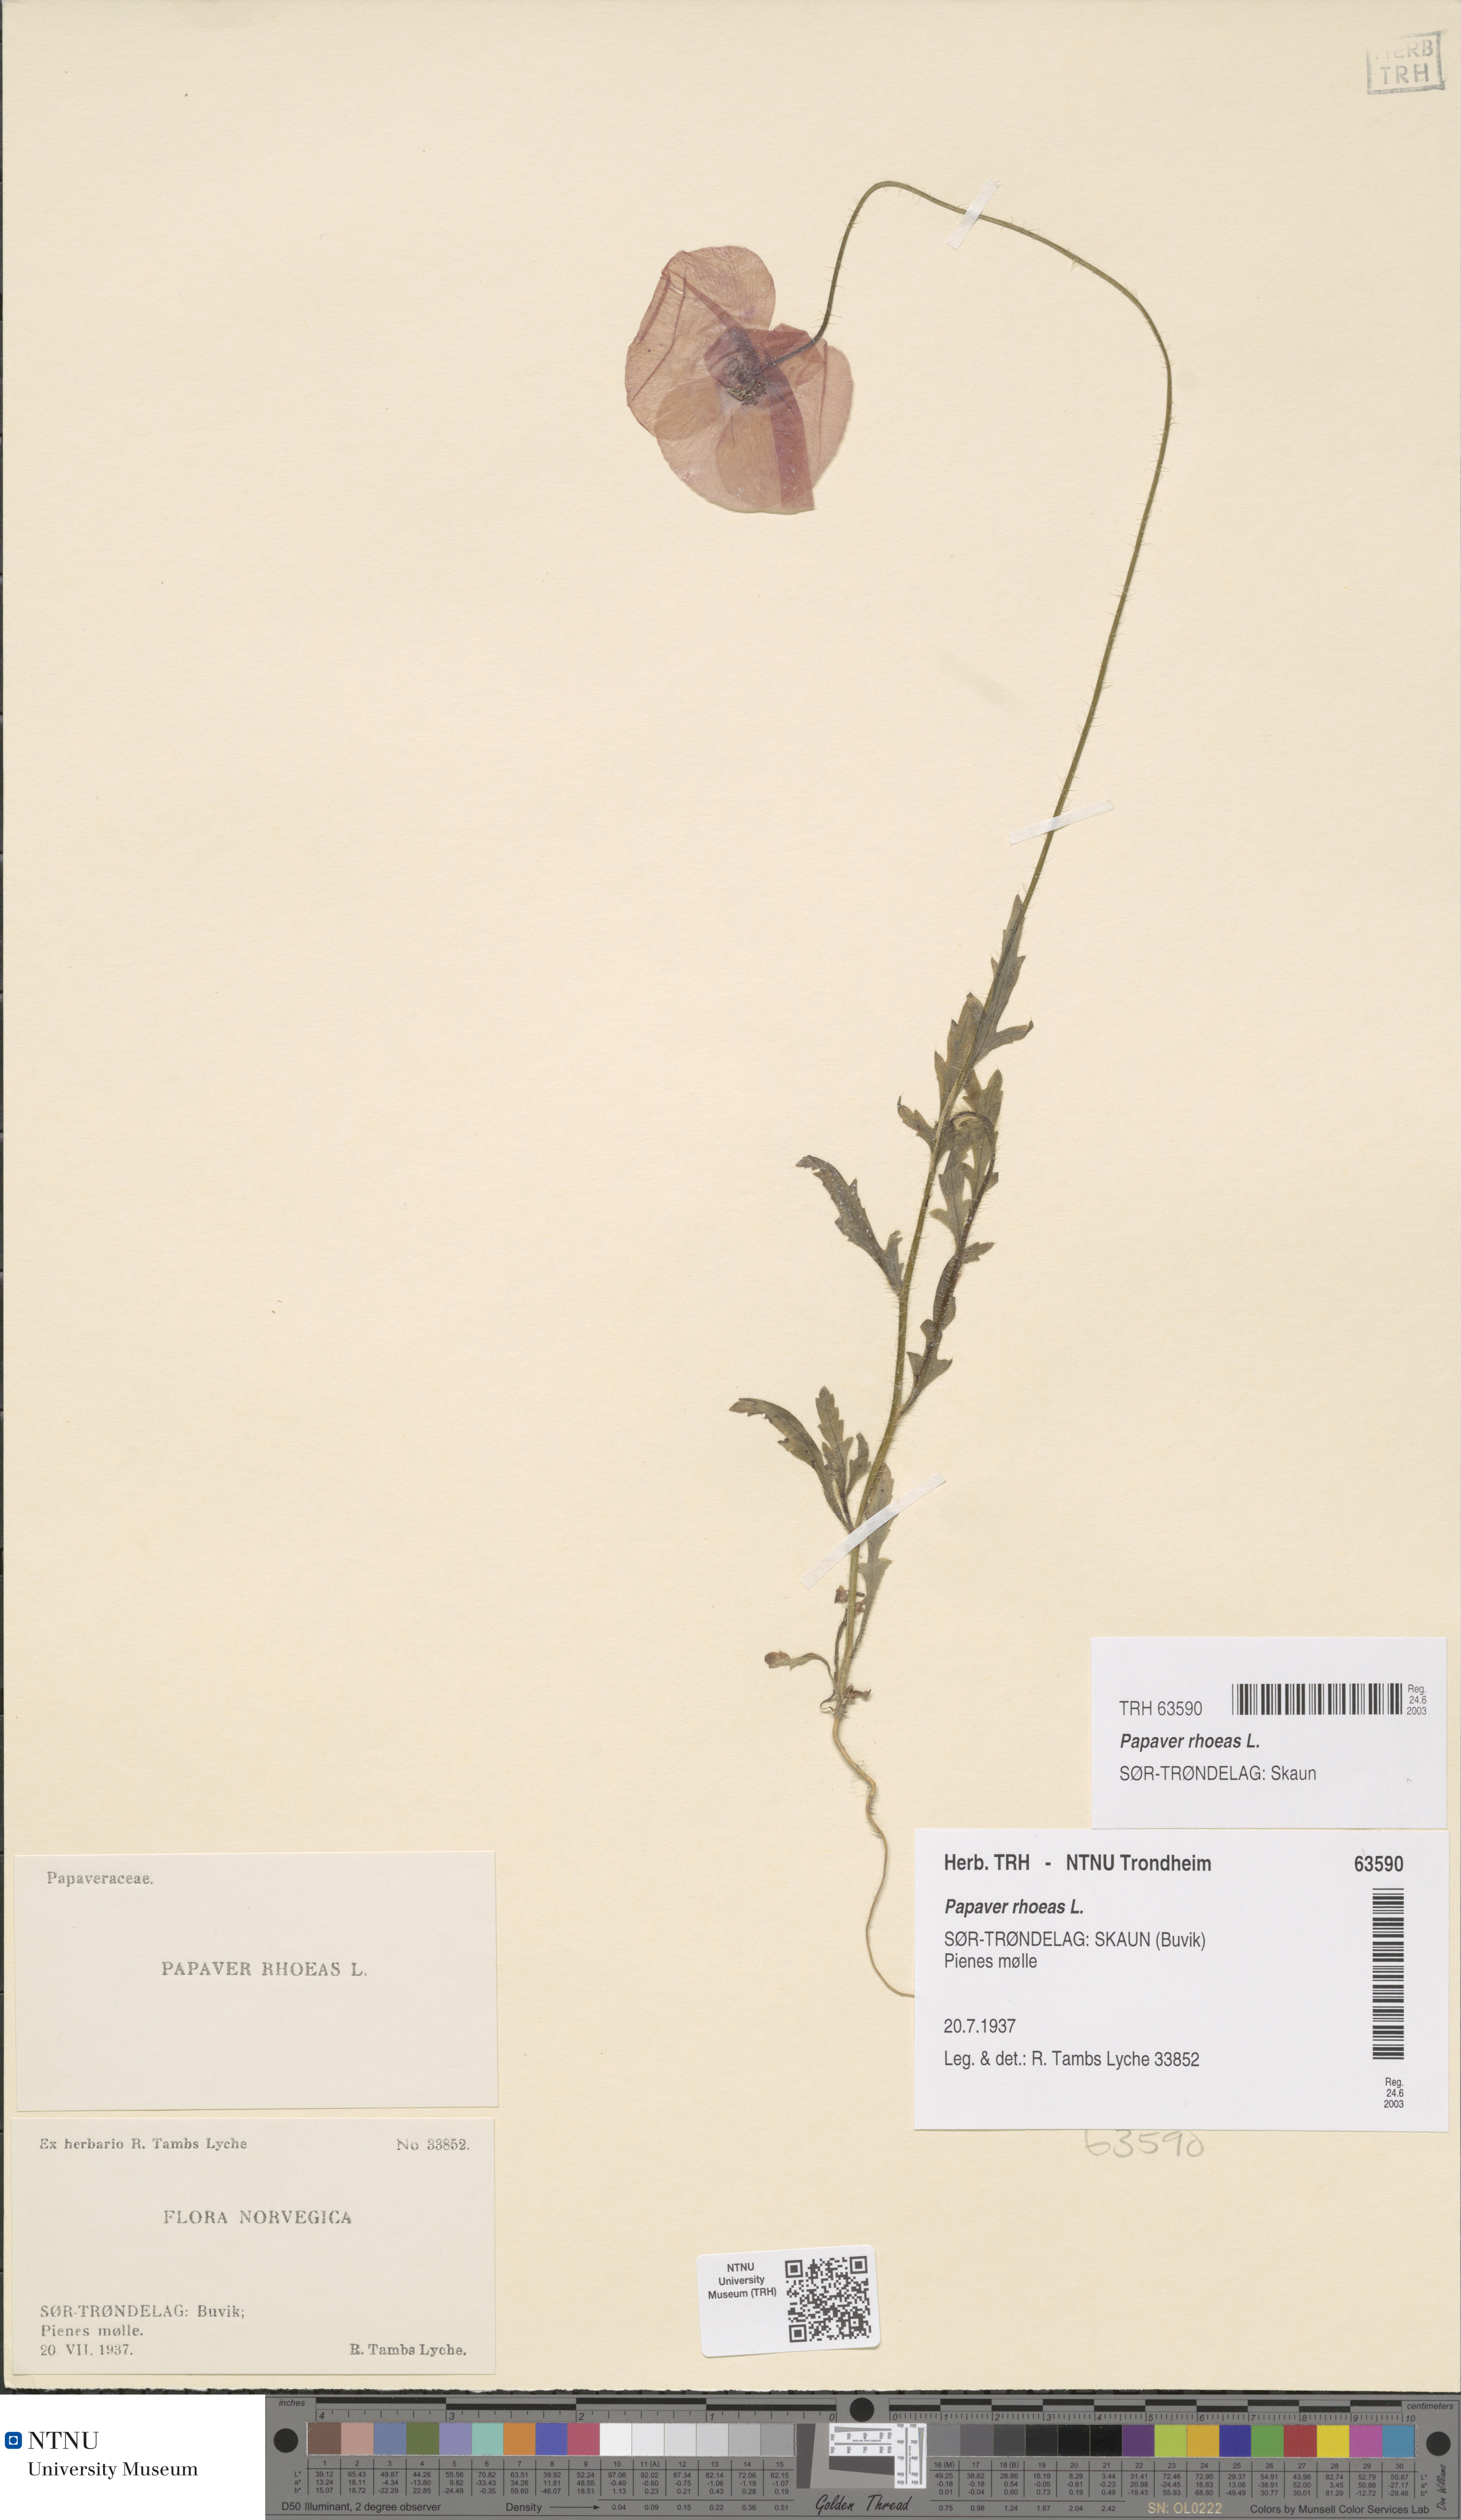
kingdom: Plantae
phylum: Tracheophyta
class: Magnoliopsida
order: Ranunculales
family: Papaveraceae
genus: Papaver
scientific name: Papaver rhoeas
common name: Corn poppy
